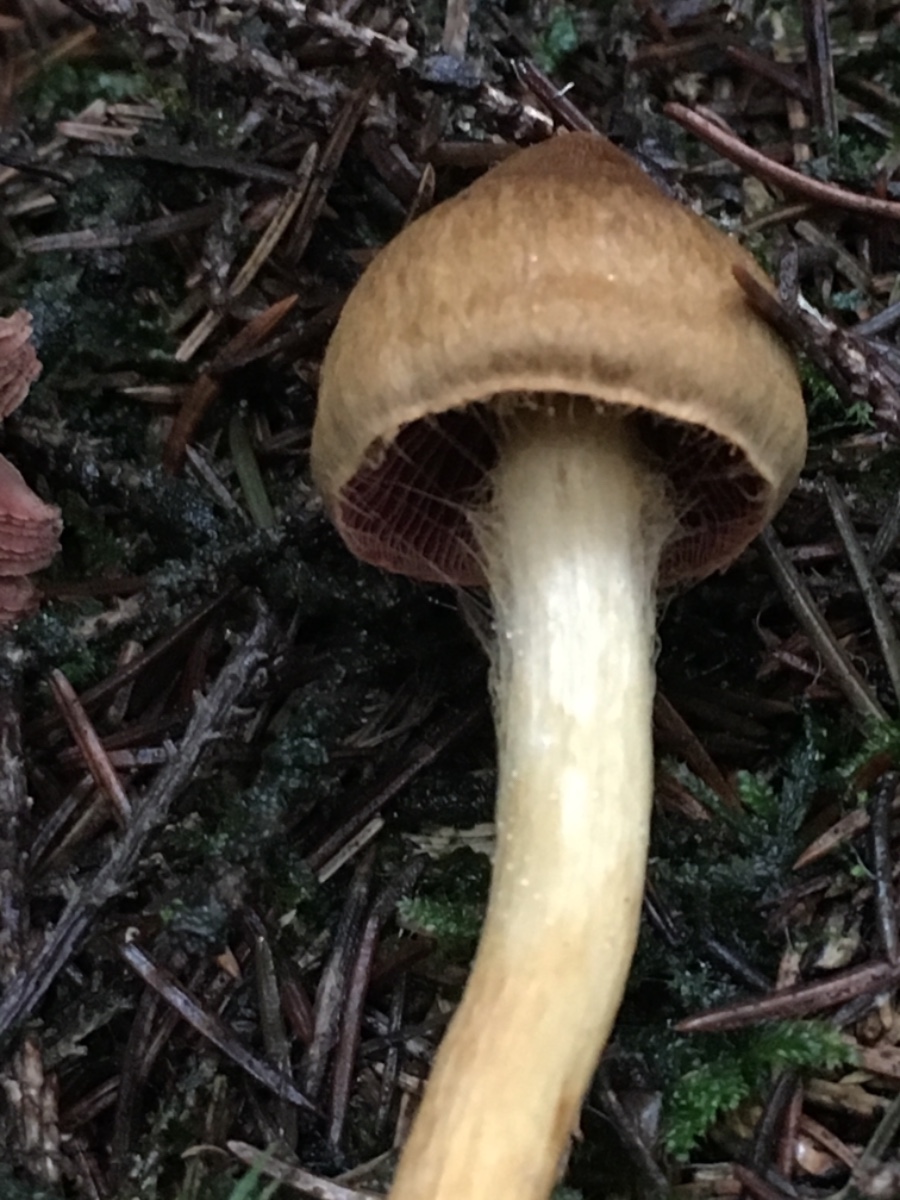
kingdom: Fungi
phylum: Basidiomycota
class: Agaricomycetes
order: Agaricales
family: Cortinariaceae
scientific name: Cortinariaceae
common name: slørhatfamilien
